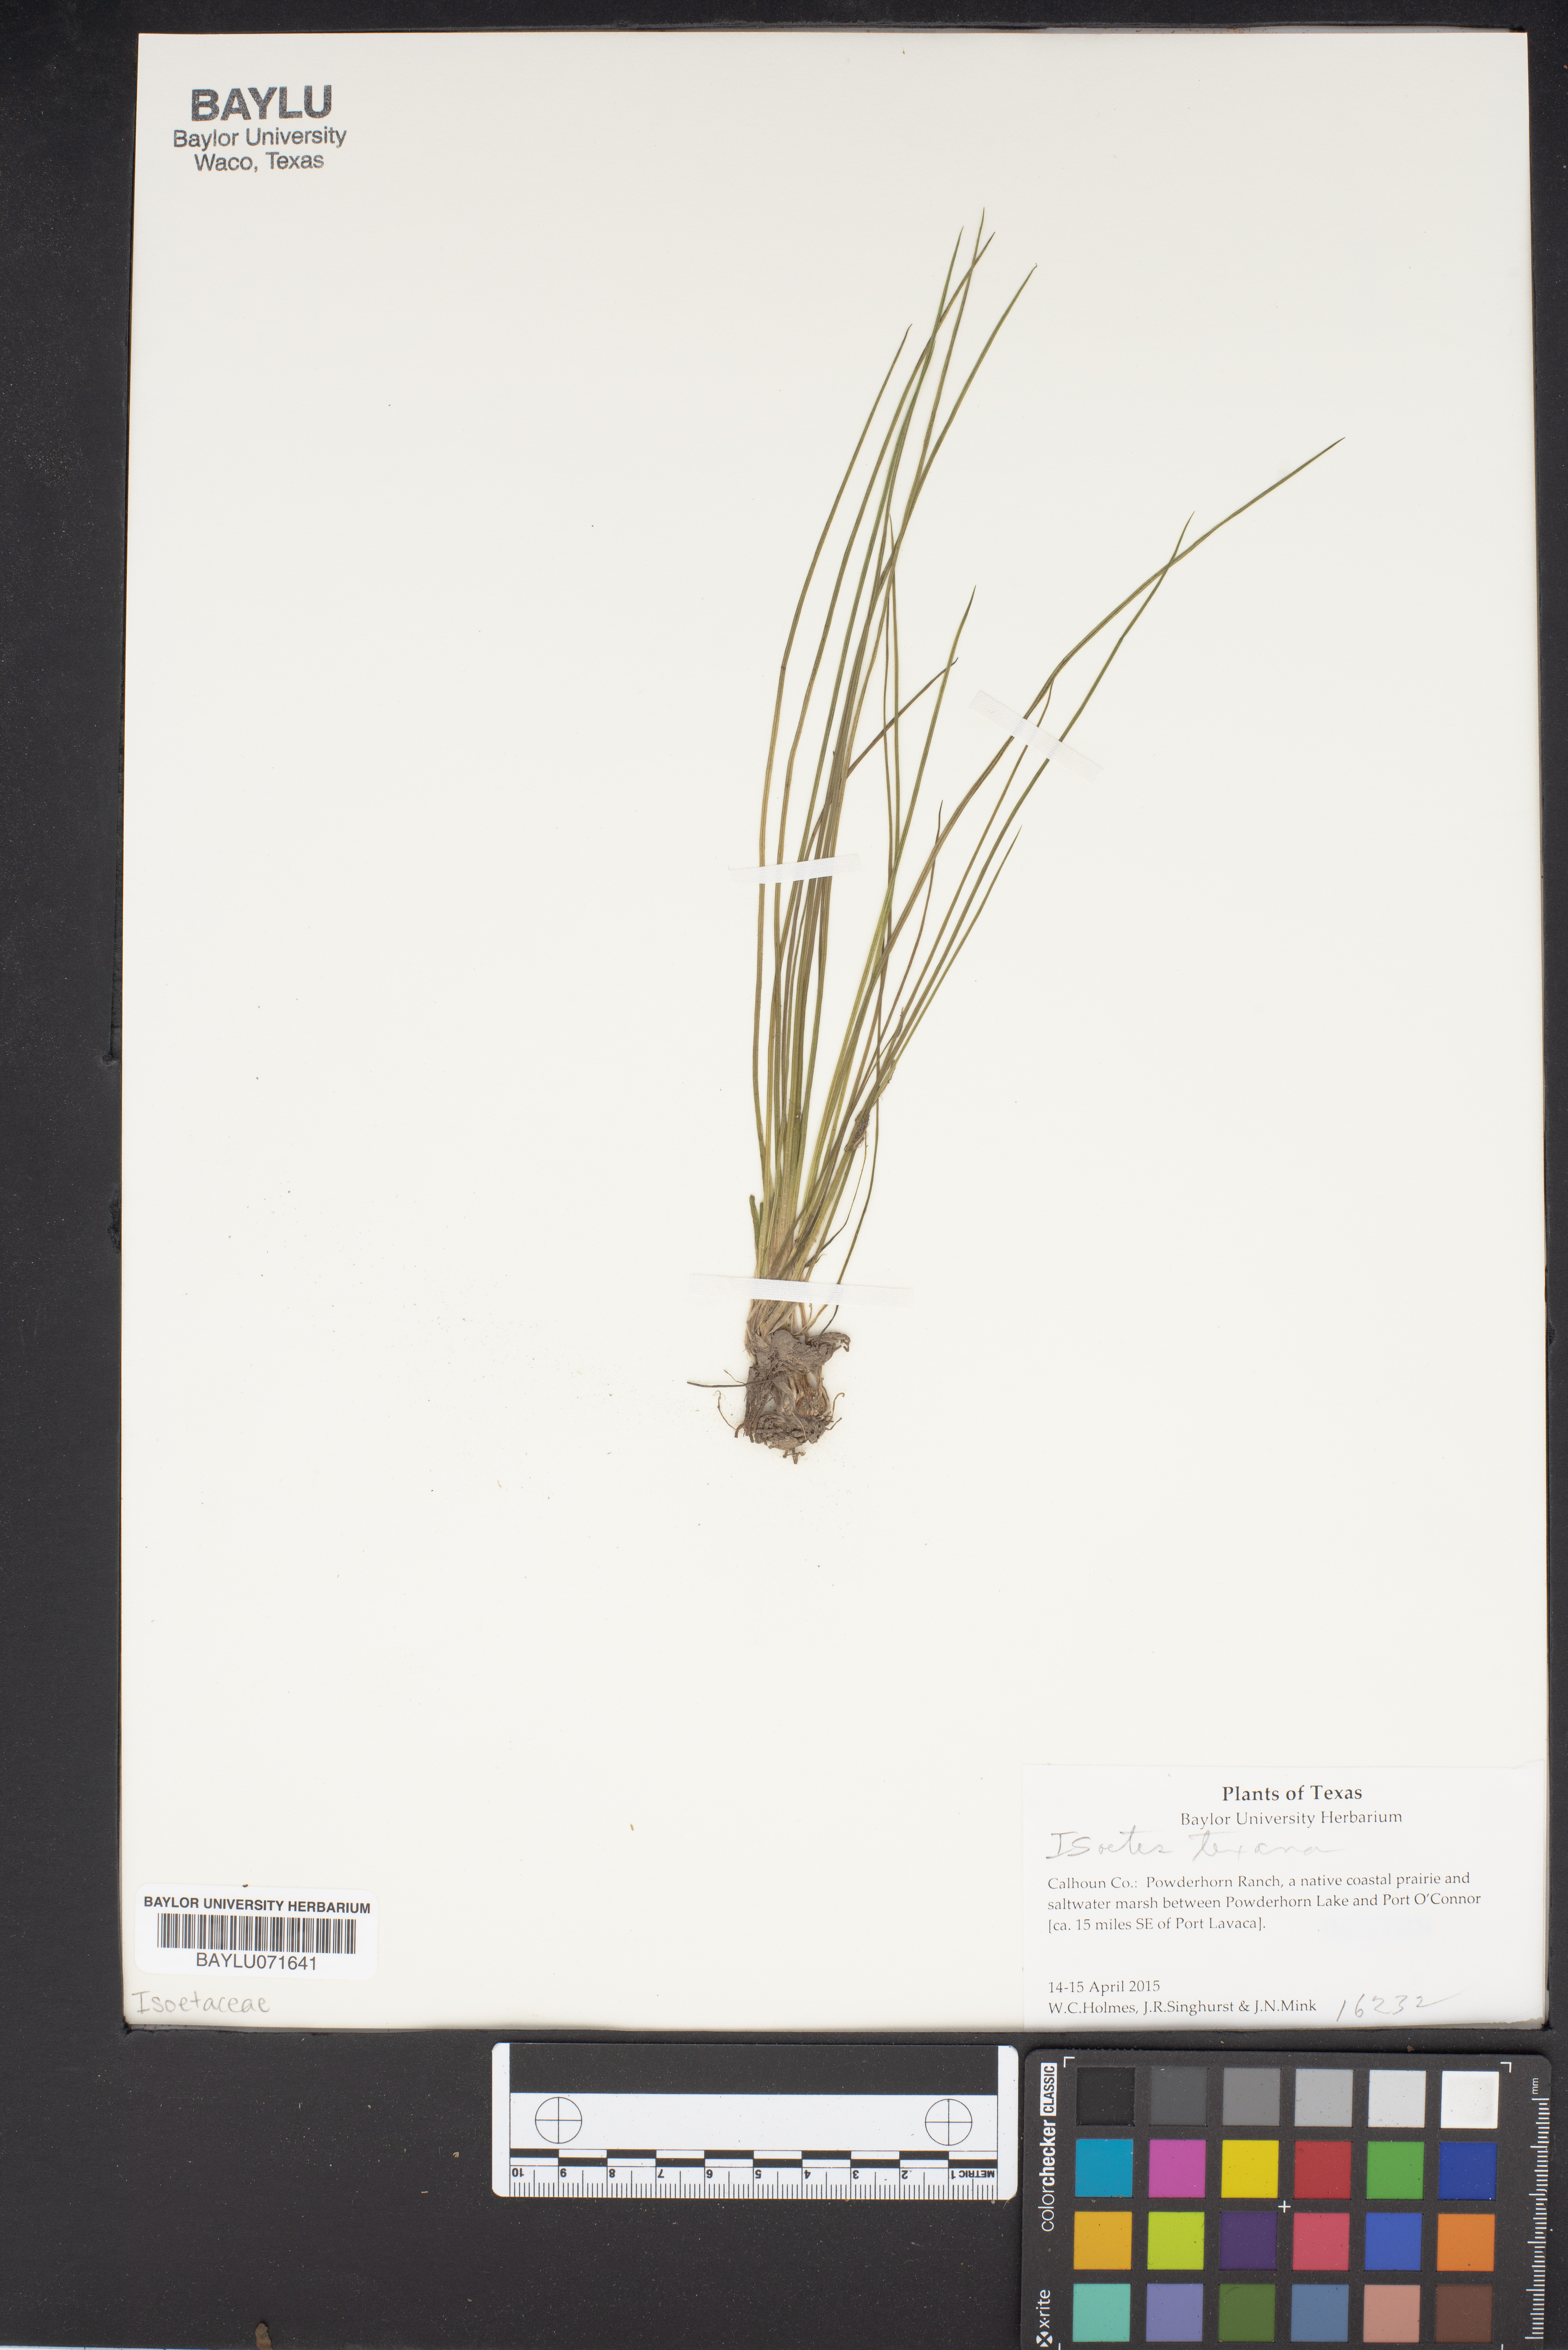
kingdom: Plantae
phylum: Tracheophyta
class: Lycopodiopsida
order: Isoetales
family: Isoetaceae
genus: Isoetes
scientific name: Isoetes texana
